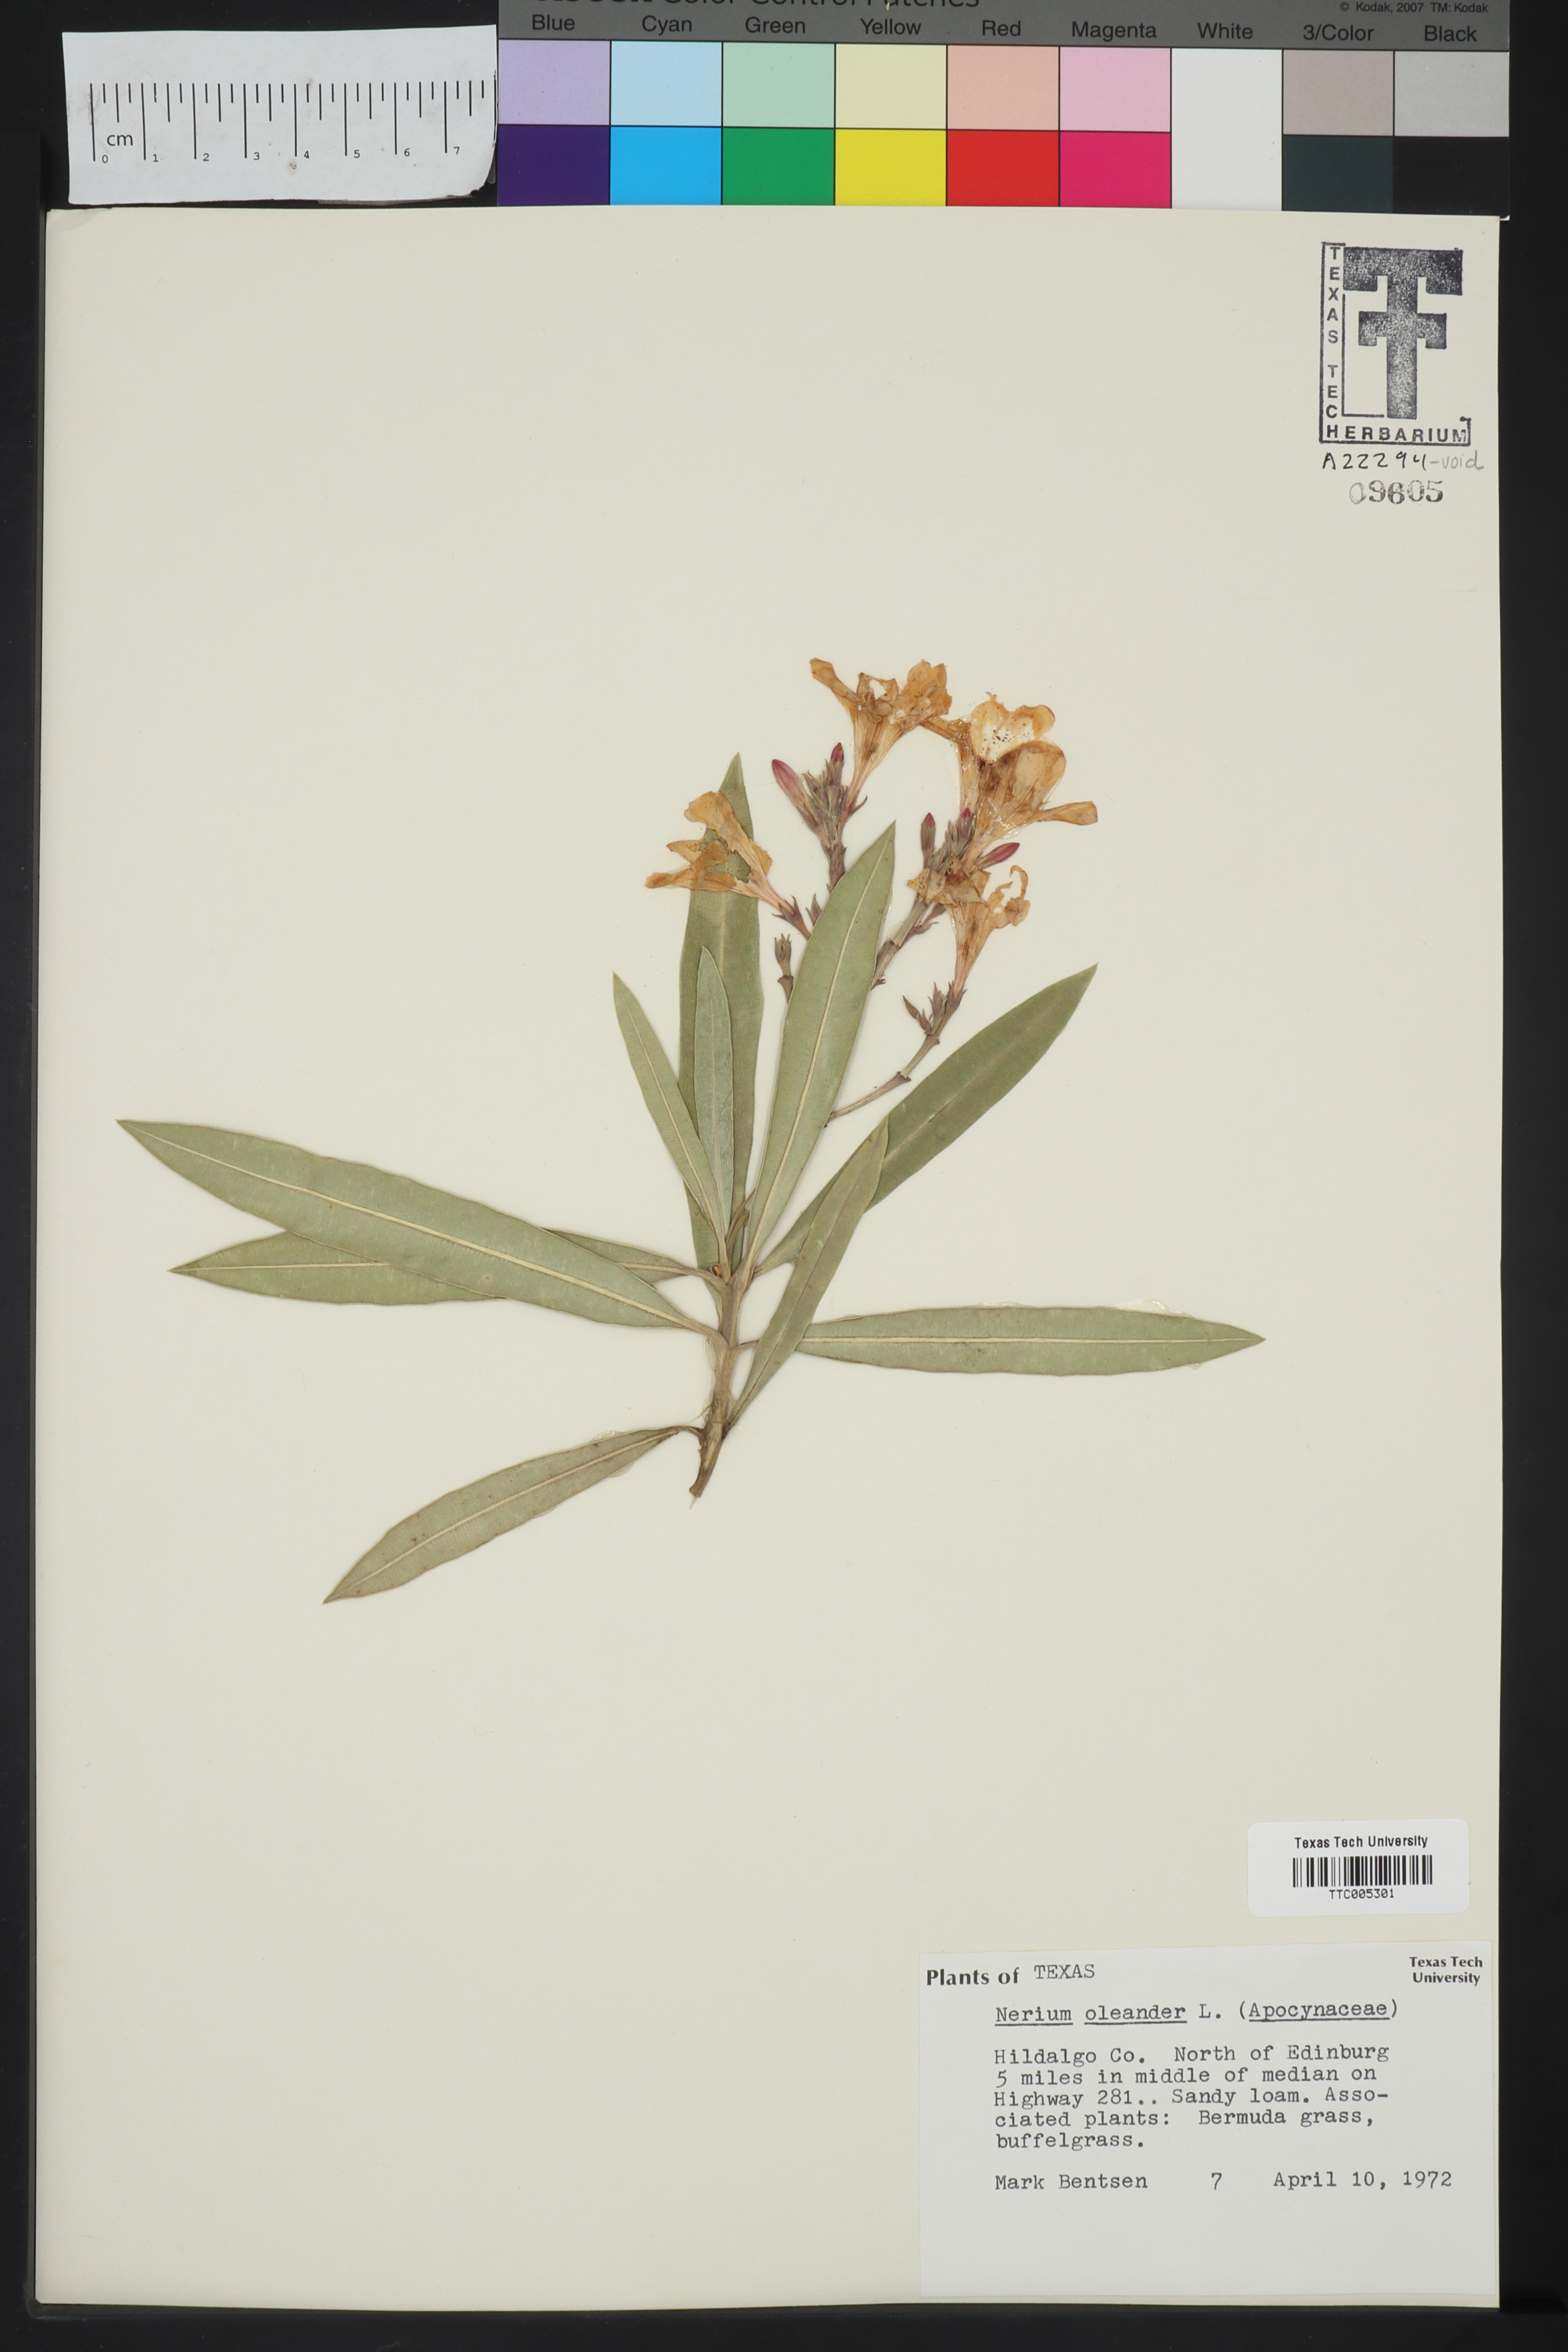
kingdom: Plantae
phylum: Tracheophyta
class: Magnoliopsida
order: Gentianales
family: Apocynaceae
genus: Nerium
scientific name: Nerium oleander
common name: Oleander
